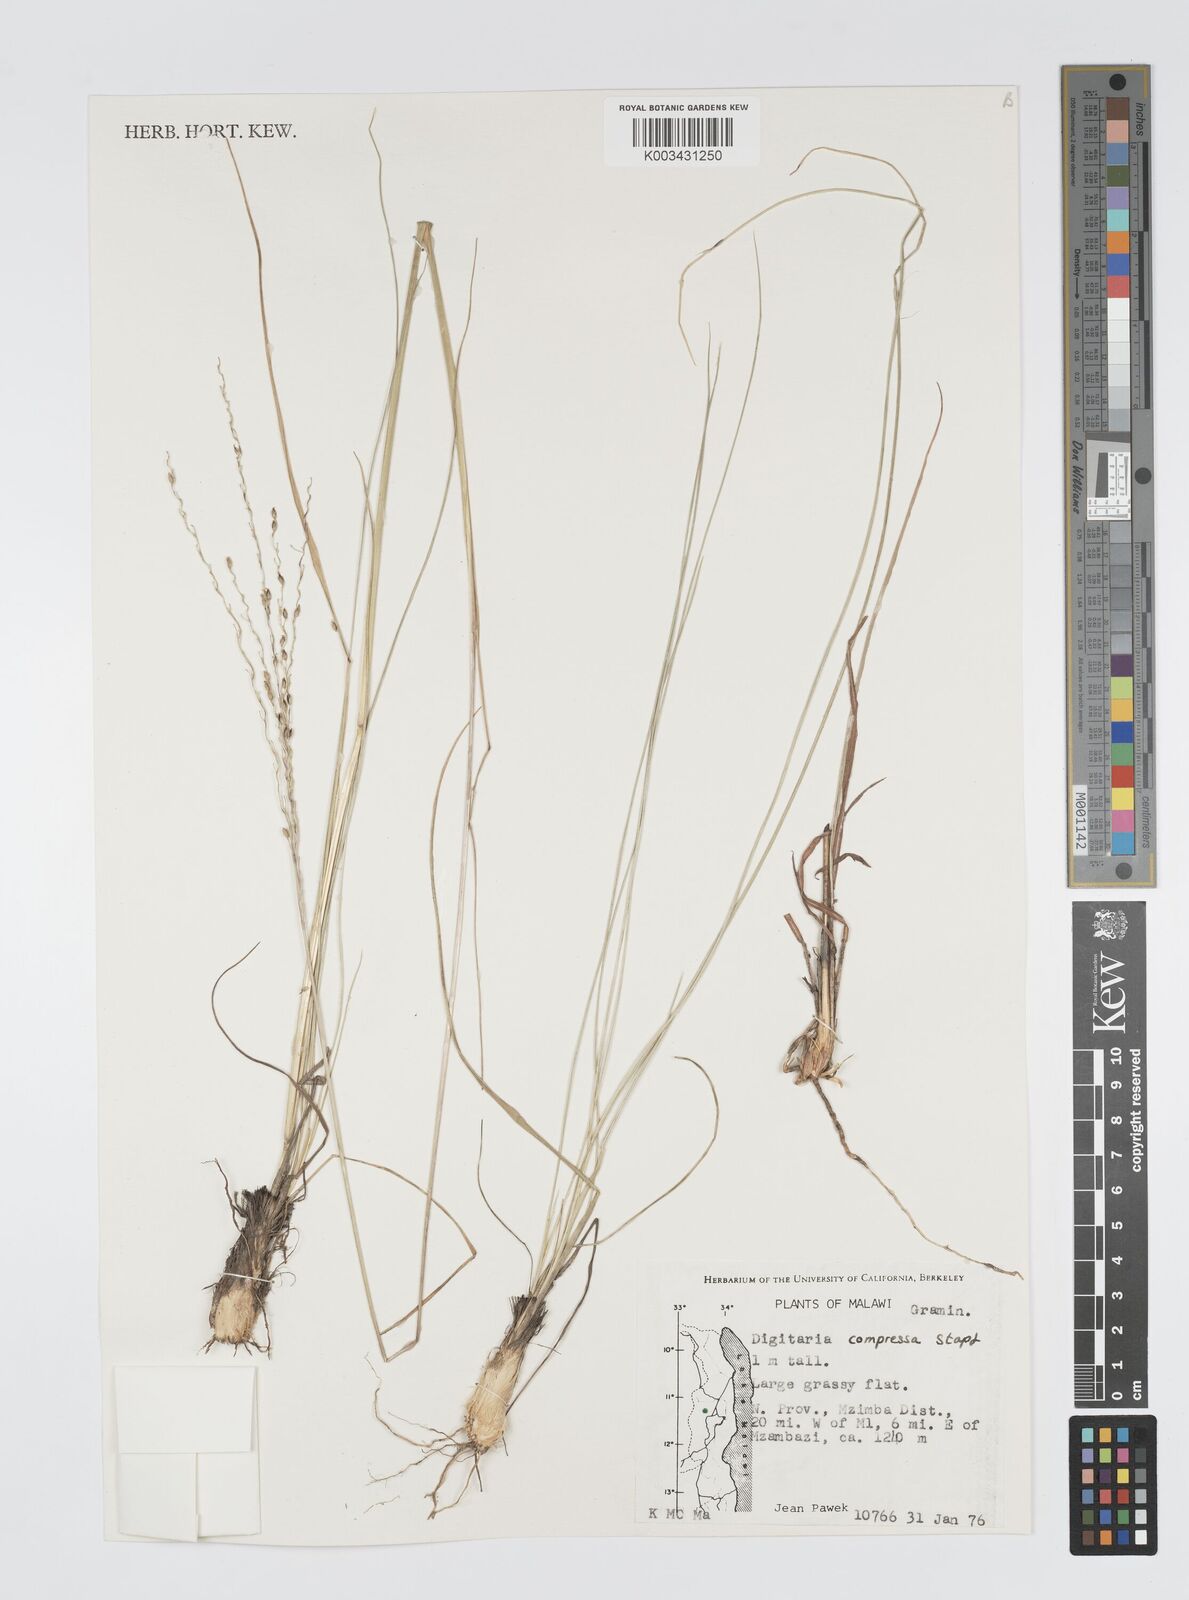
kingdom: Plantae
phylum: Tracheophyta
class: Liliopsida
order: Poales
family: Poaceae
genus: Digitaria
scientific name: Digitaria setifolia
